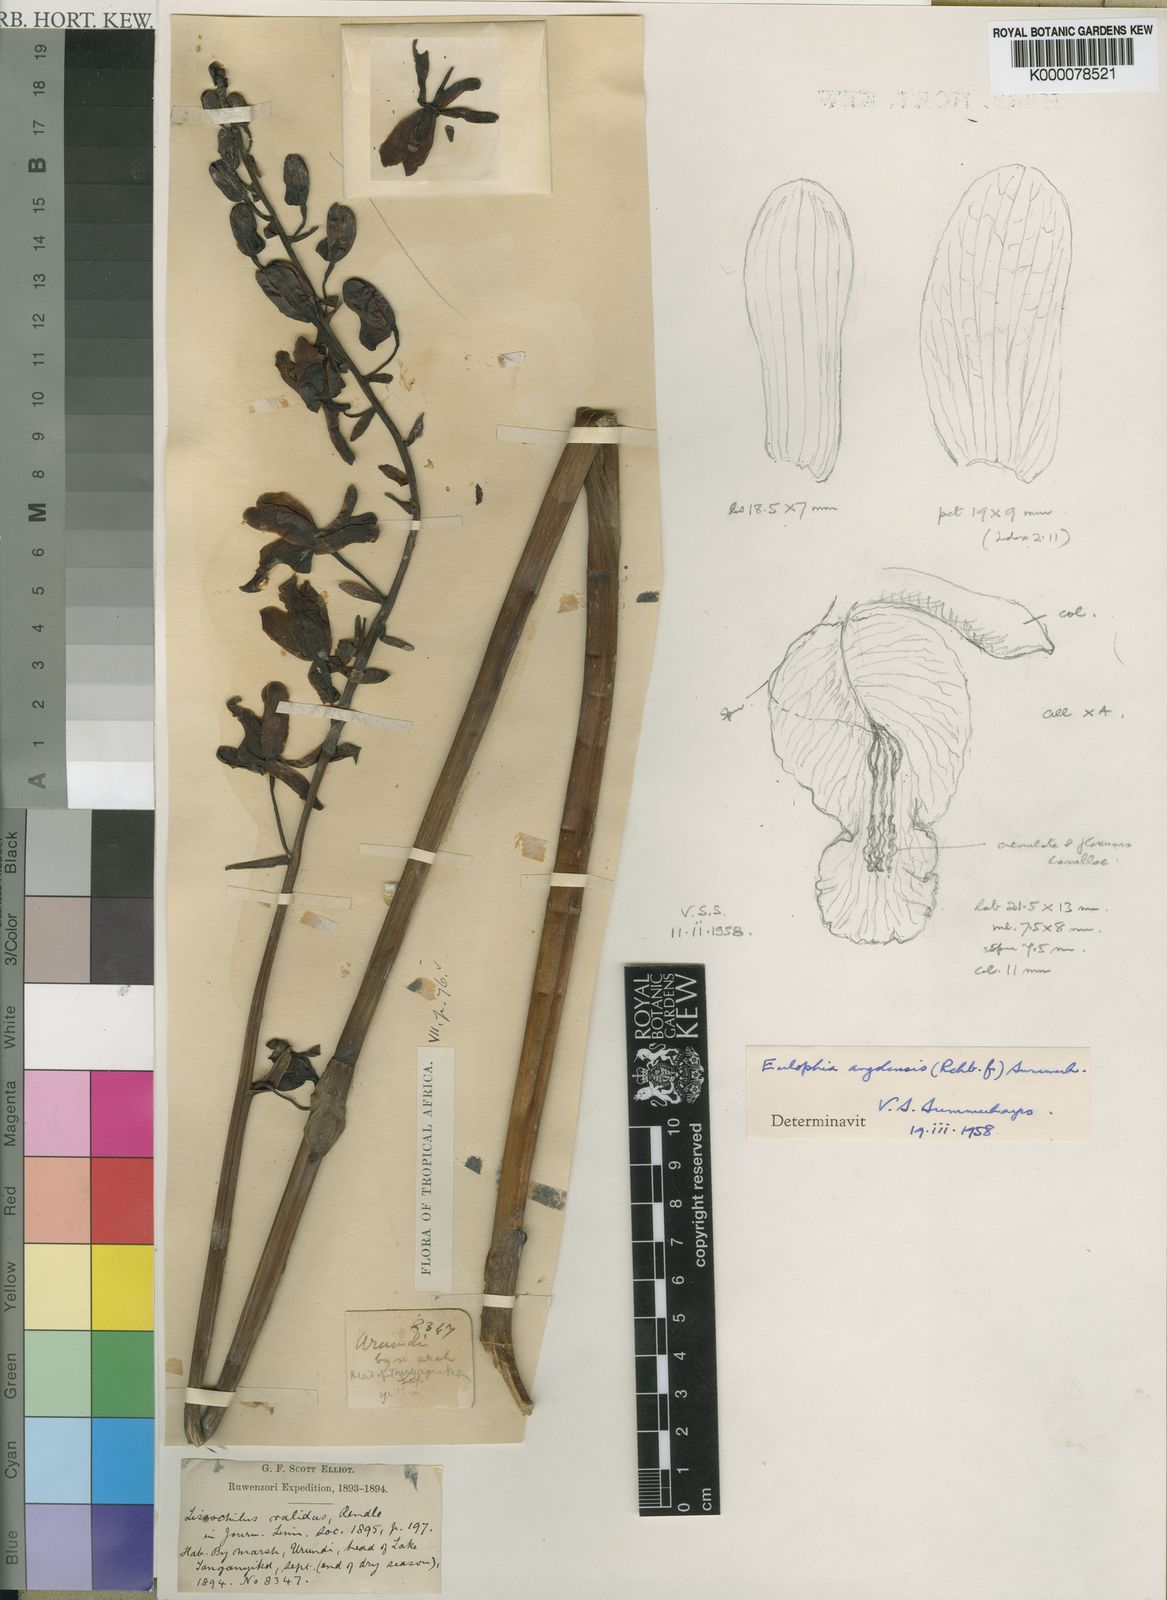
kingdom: Plantae
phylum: Tracheophyta
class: Liliopsida
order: Asparagales
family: Orchidaceae
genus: Eulophia
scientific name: Eulophia angolensis
